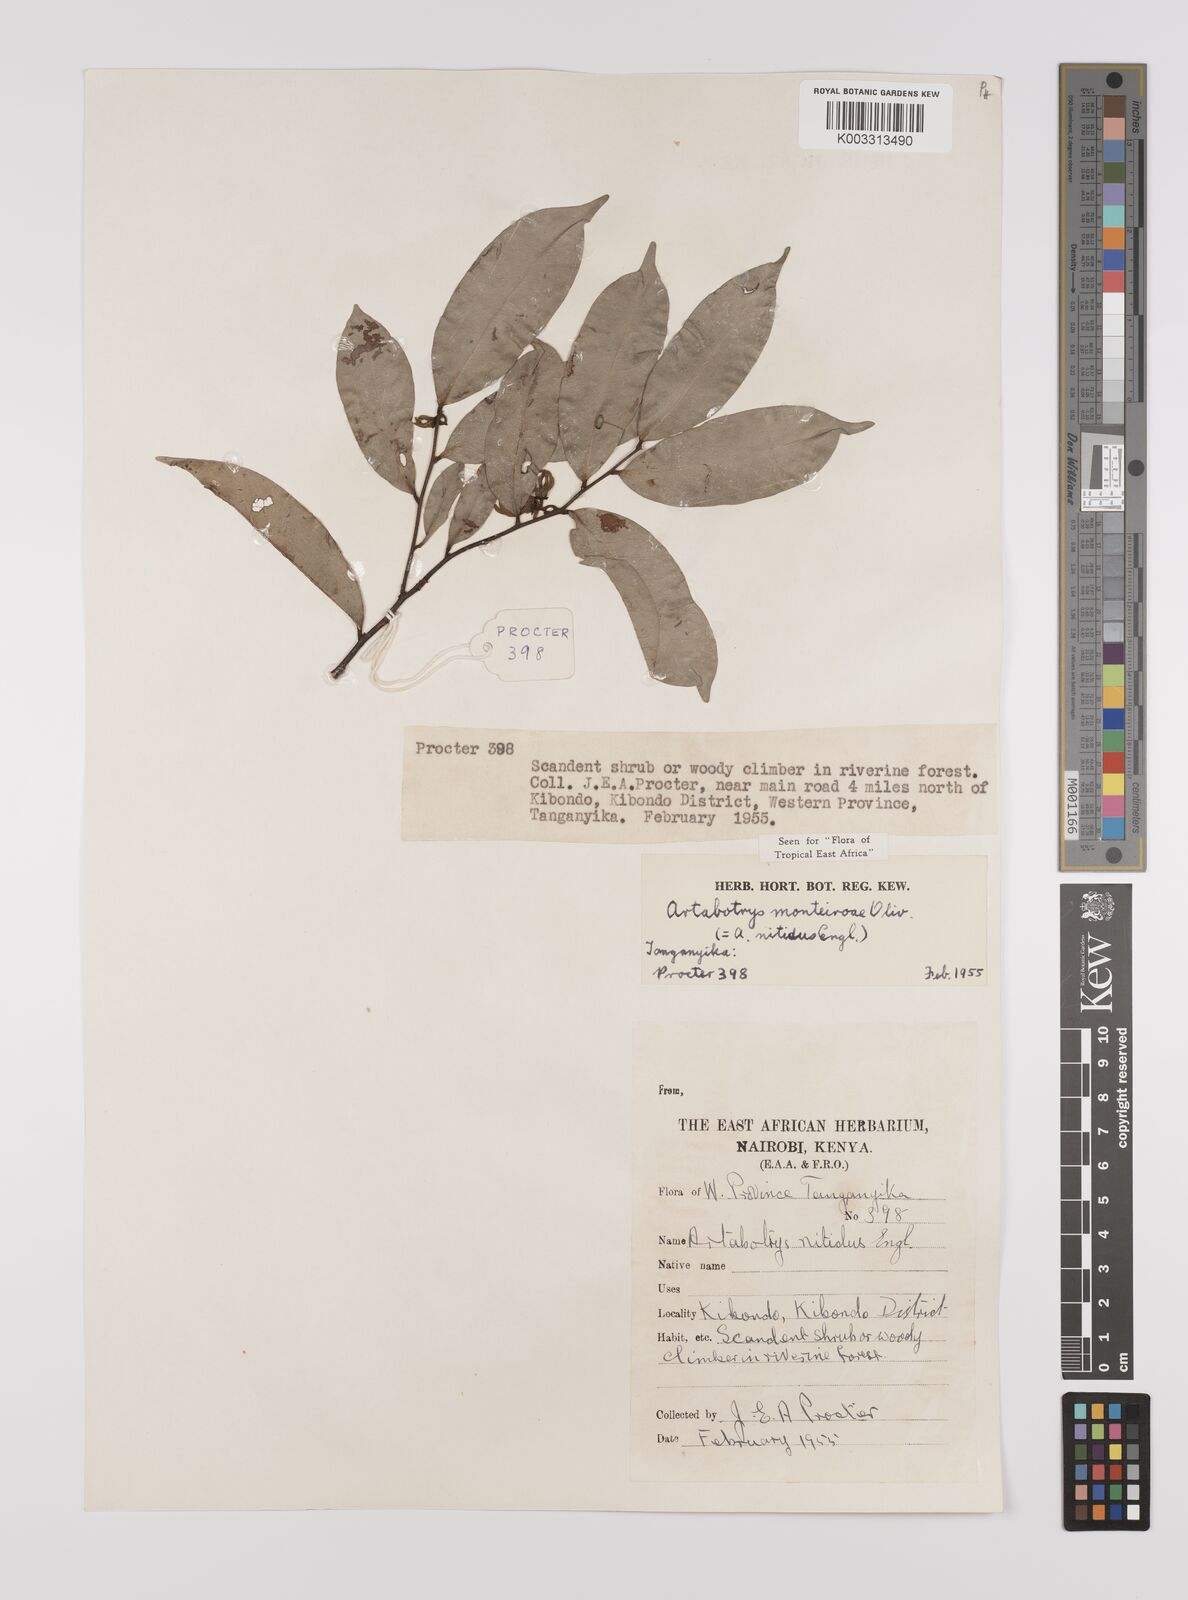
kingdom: Plantae
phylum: Tracheophyta
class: Magnoliopsida
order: Magnoliales
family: Annonaceae
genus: Artabotrys
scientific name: Artabotrys monteiroae
